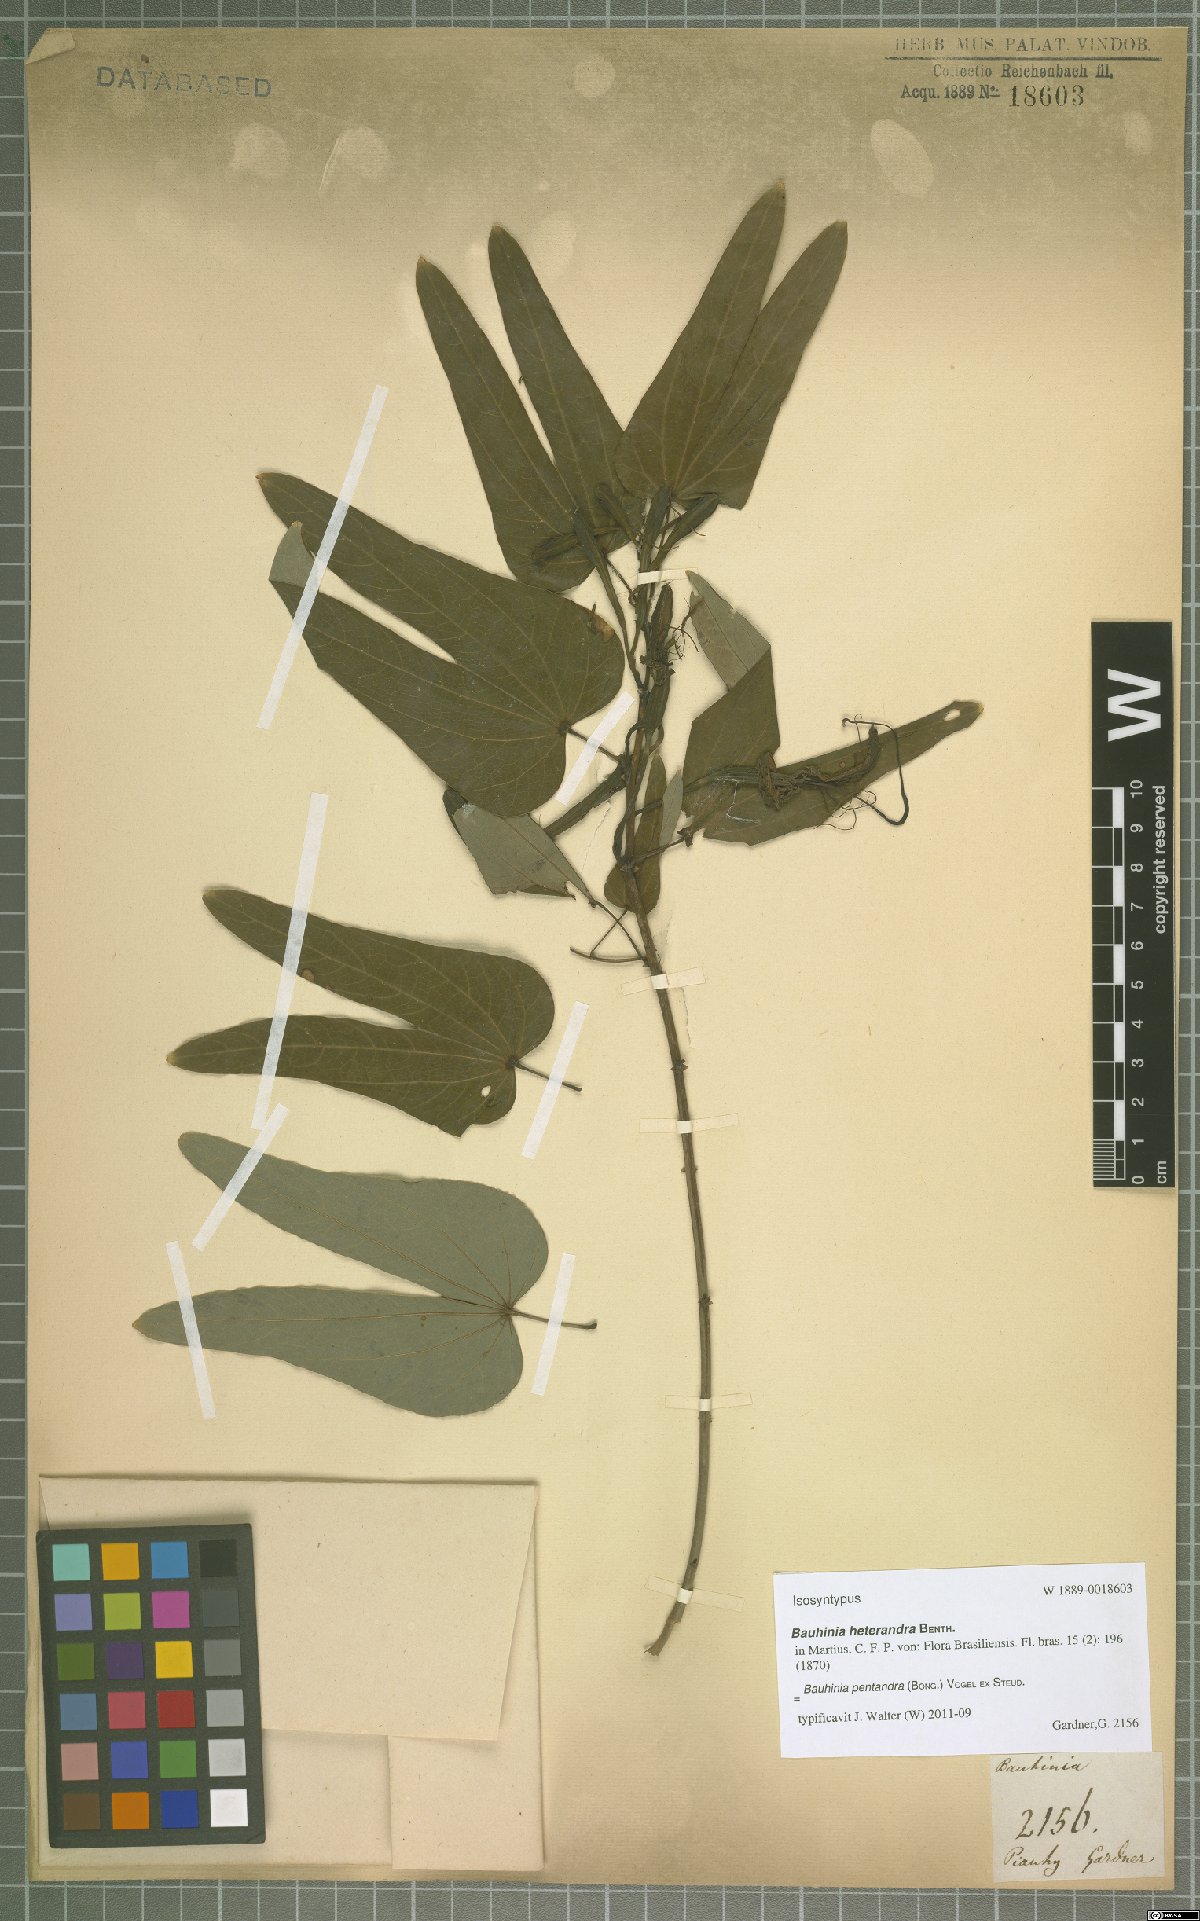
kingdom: Plantae
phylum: Tracheophyta
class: Magnoliopsida
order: Fabales
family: Fabaceae
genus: Bauhinia
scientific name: Bauhinia pentandra
